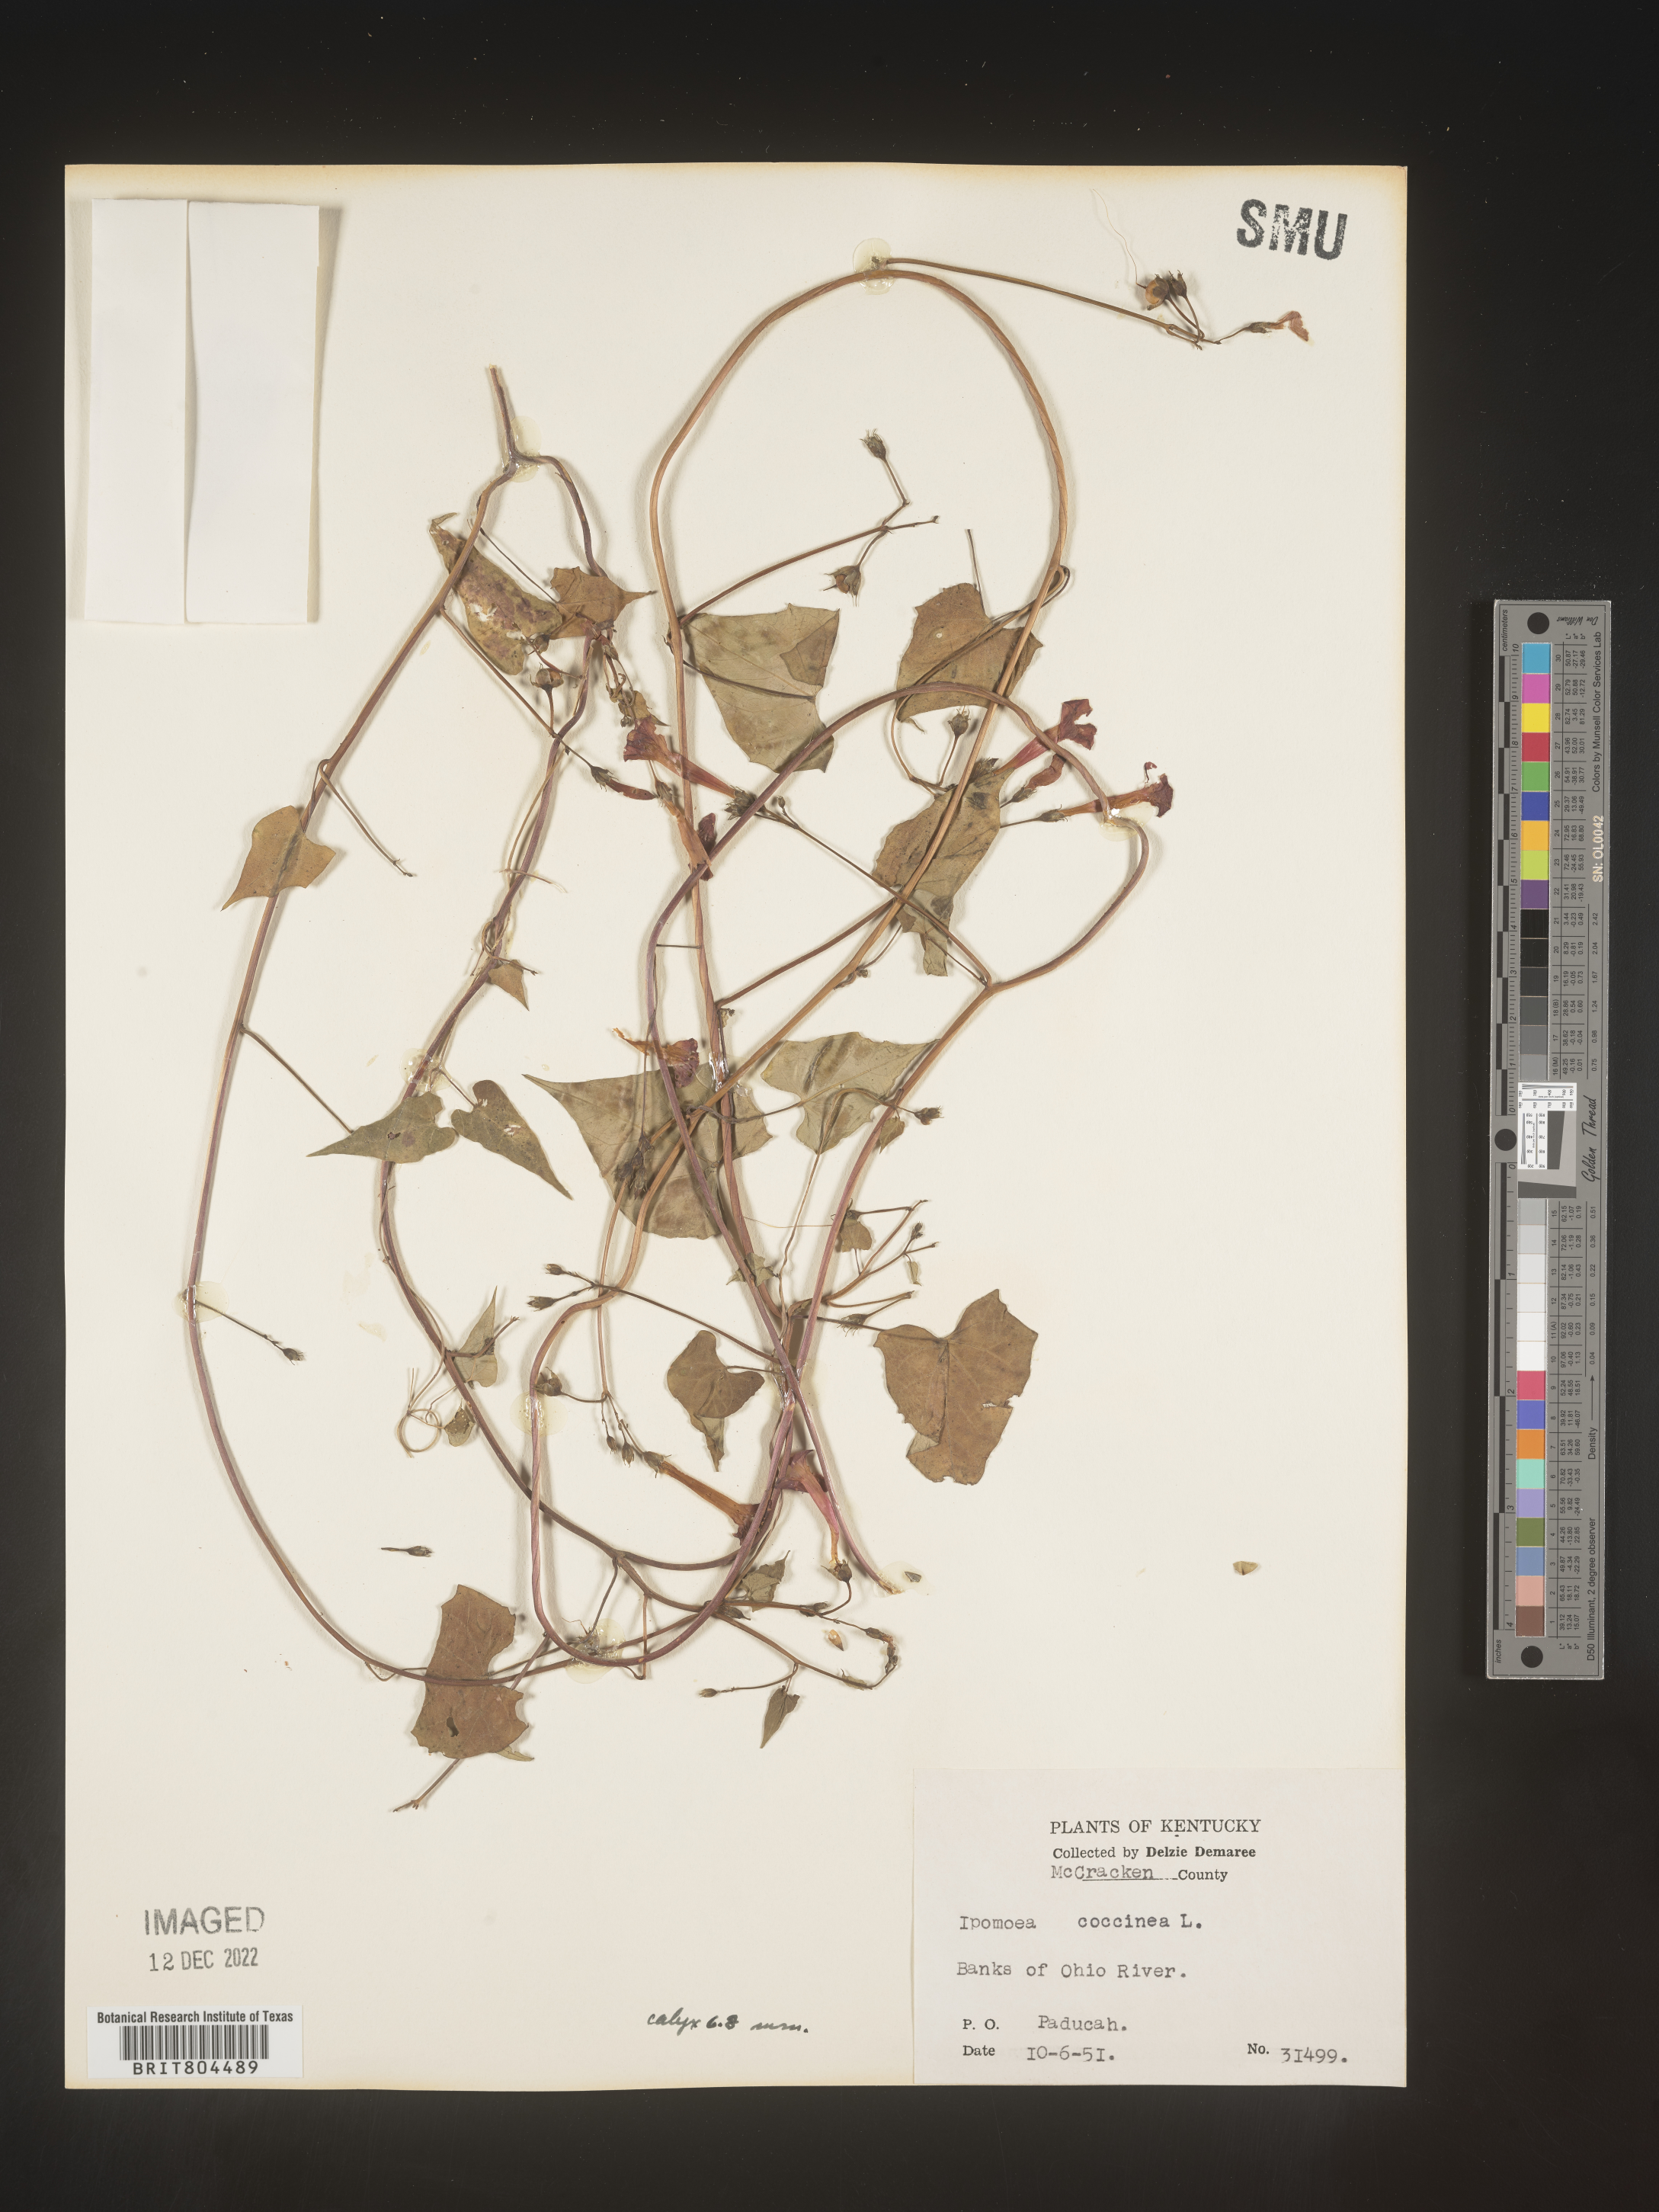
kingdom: Plantae
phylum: Tracheophyta
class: Magnoliopsida
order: Solanales
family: Convolvulaceae
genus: Ipomoea
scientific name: Ipomoea coccinea
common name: Red morning-glory
